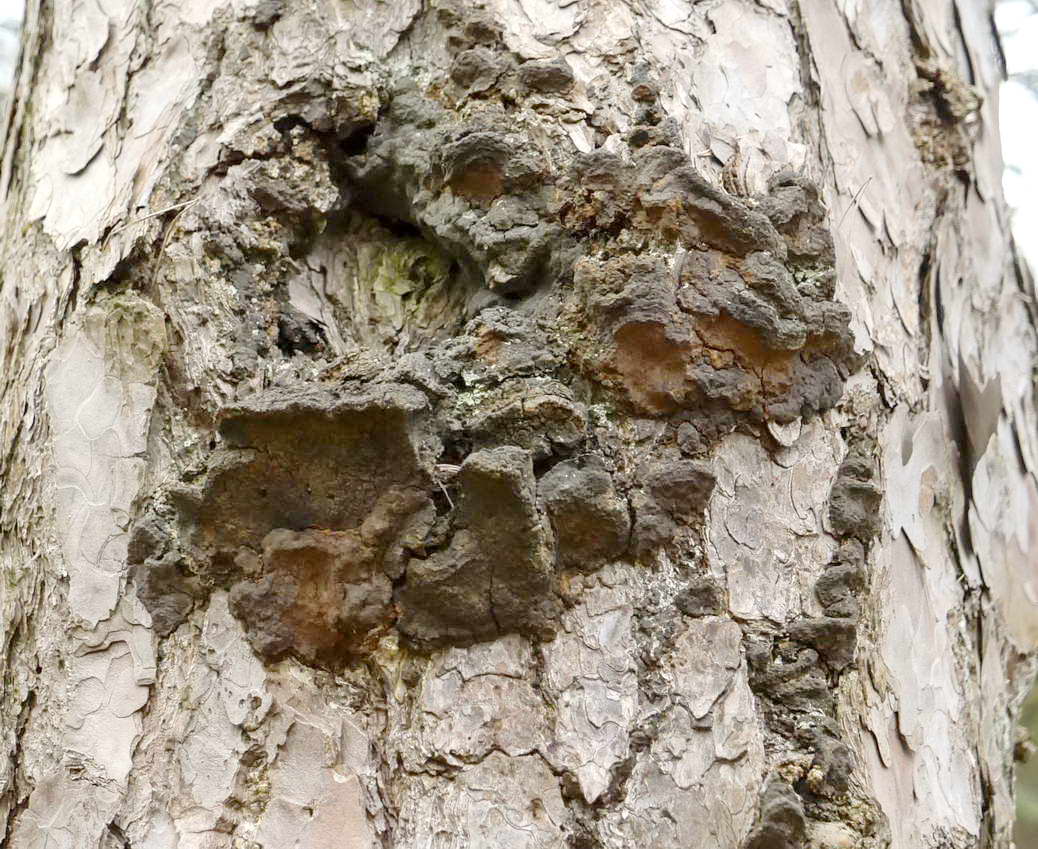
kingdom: Fungi
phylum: Basidiomycota
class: Agaricomycetes
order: Hymenochaetales
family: Hymenochaetaceae
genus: Porodaedalea
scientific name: Porodaedalea pini
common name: fyrre-ildporesvamp
